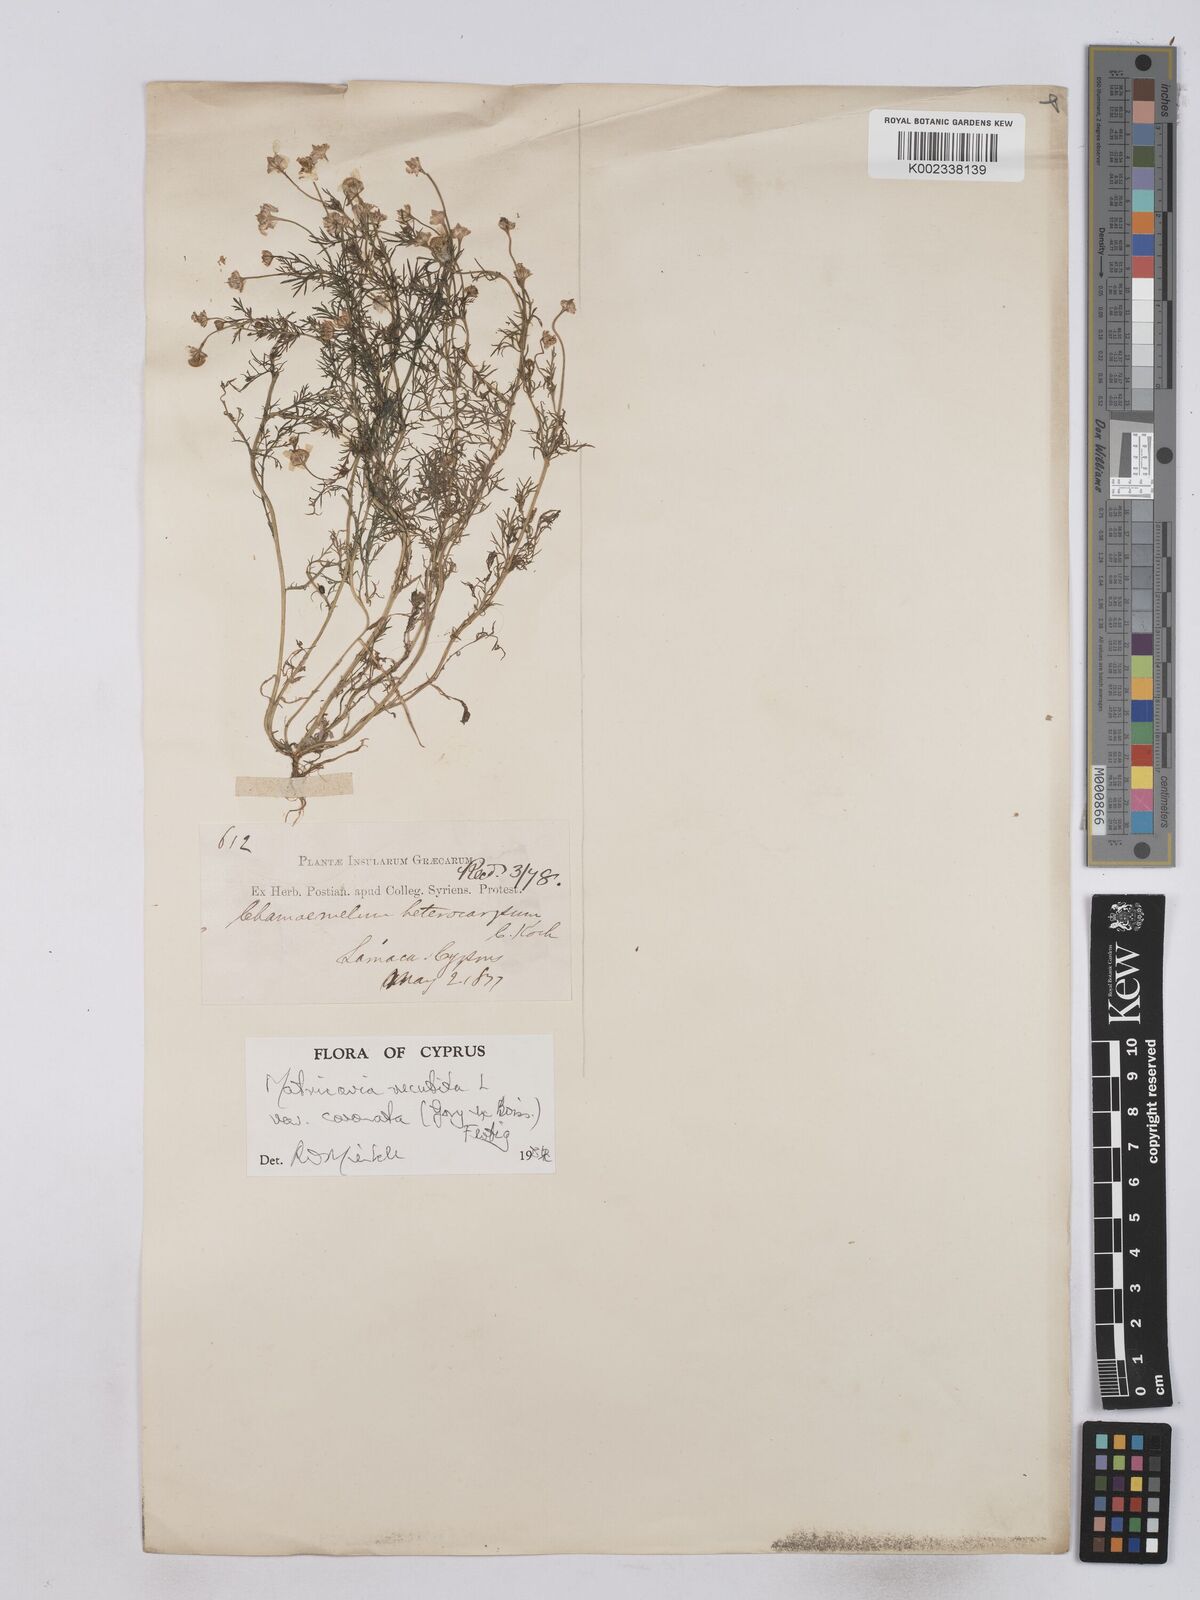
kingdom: Plantae
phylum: Tracheophyta
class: Magnoliopsida
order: Asterales
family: Asteraceae
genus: Matricaria
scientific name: Matricaria chamomilla
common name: Scented mayweed
